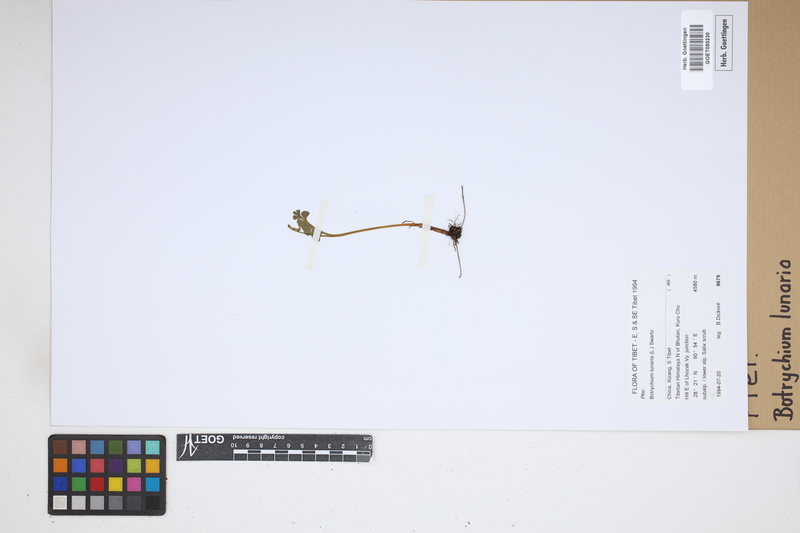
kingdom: Plantae
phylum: Tracheophyta
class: Polypodiopsida
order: Ophioglossales
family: Ophioglossaceae
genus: Botrychium
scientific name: Botrychium lunaria
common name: Moonwort
